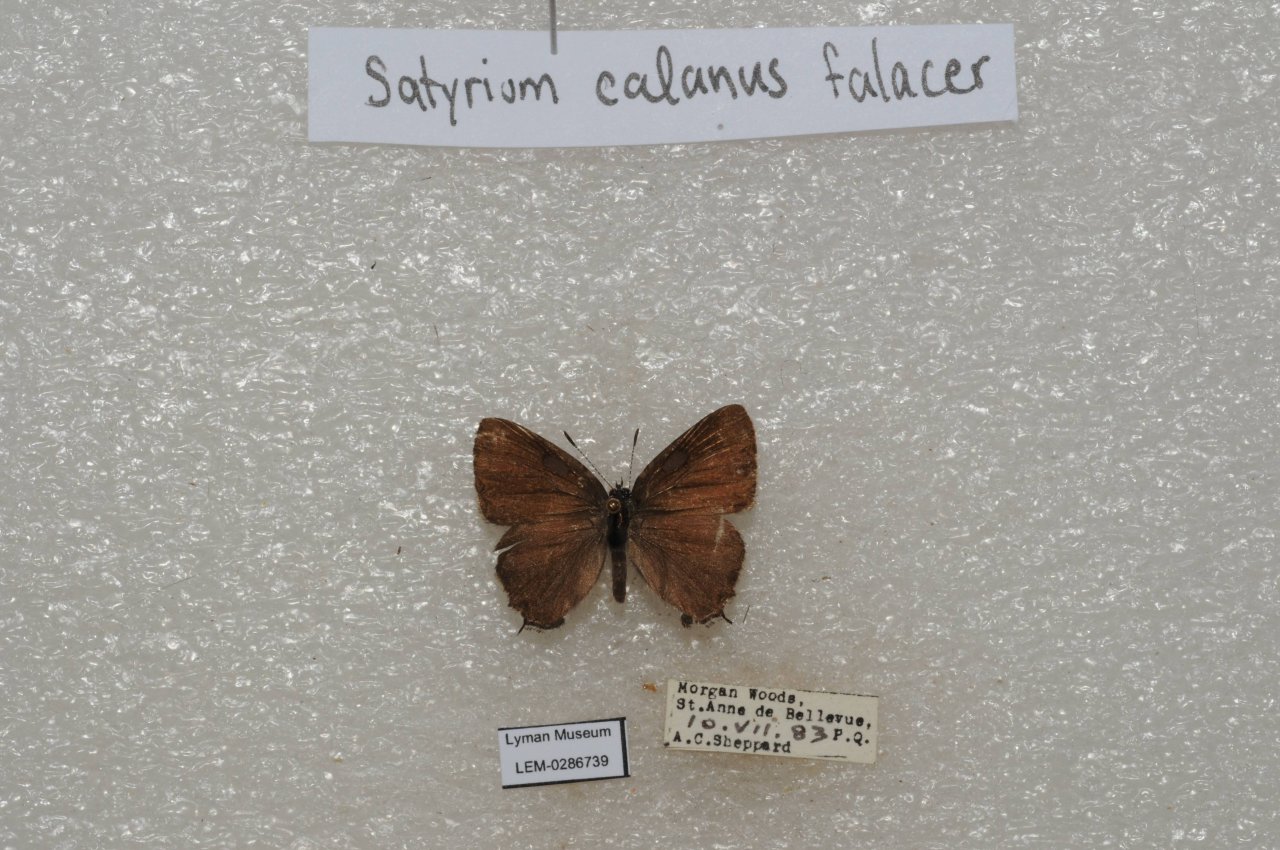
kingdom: Animalia
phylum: Arthropoda
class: Insecta
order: Lepidoptera
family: Lycaenidae
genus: Satyrium
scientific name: Satyrium calanus
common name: Banded Hairstreak
